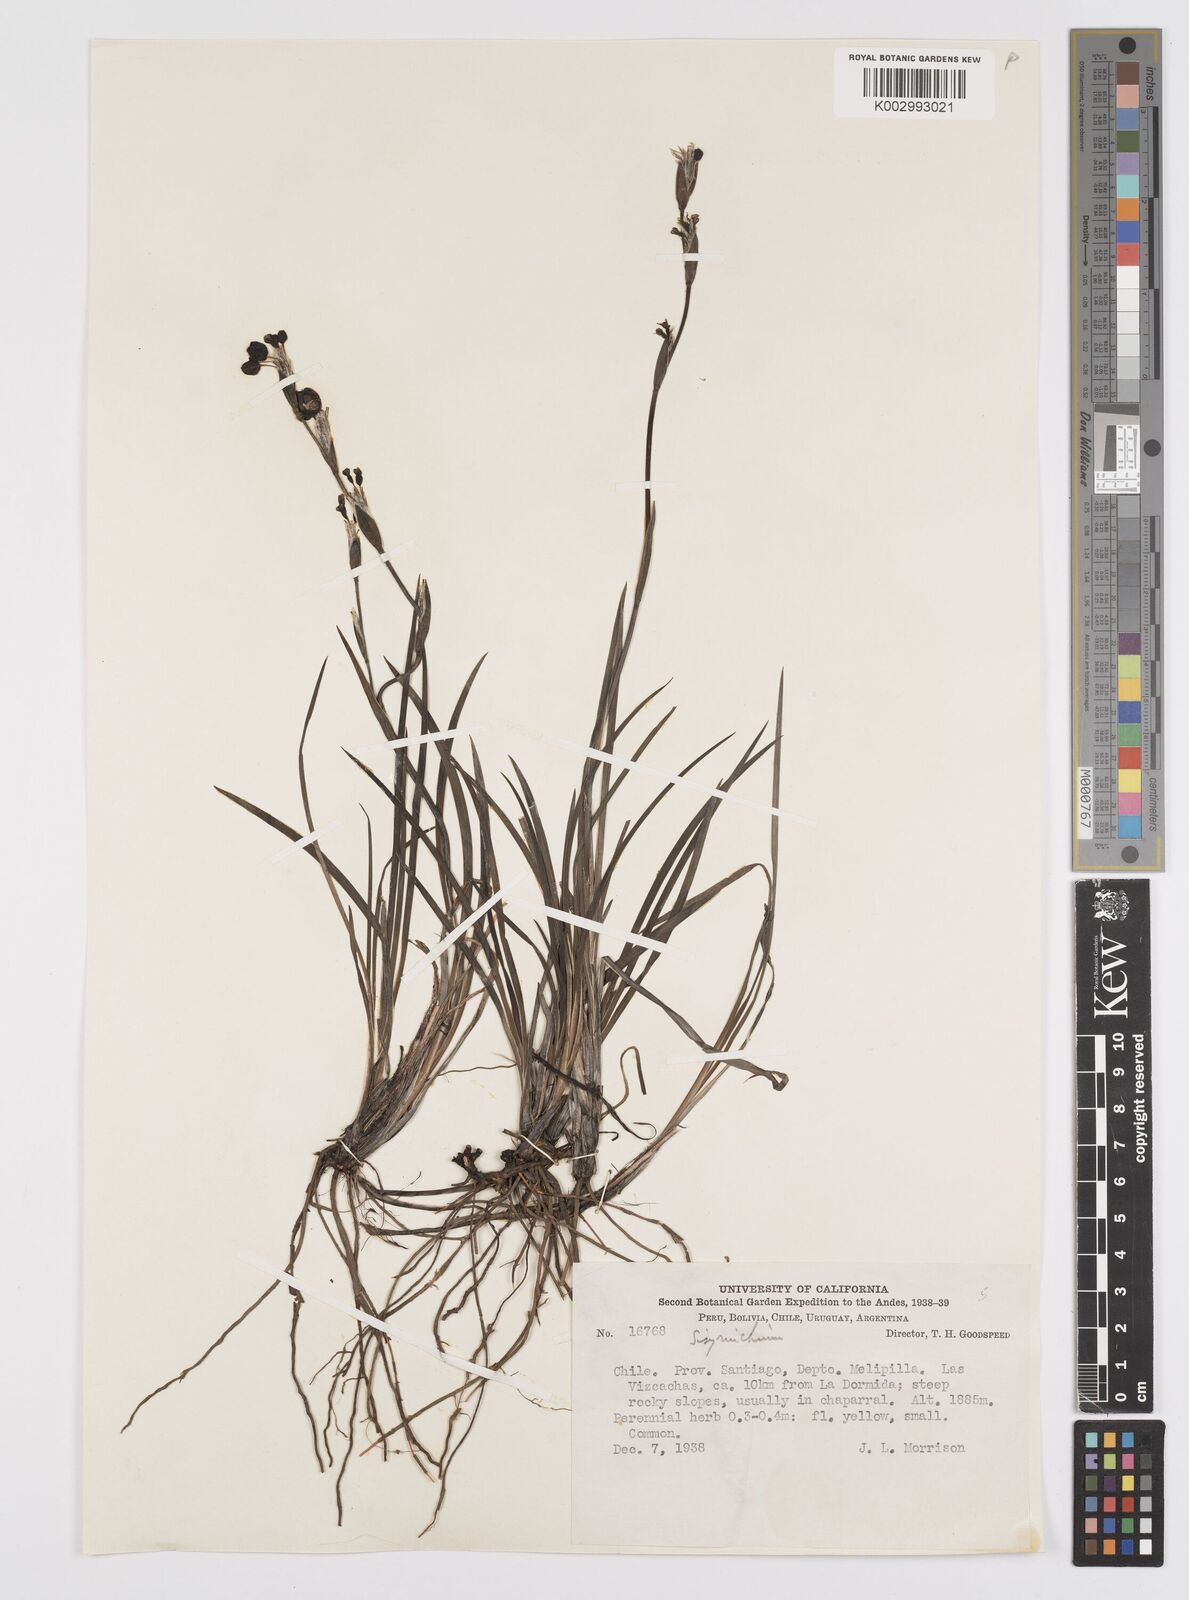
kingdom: Plantae
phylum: Tracheophyta
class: Liliopsida
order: Asparagales
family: Iridaceae
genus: Sisyrinchium
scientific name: Sisyrinchium
